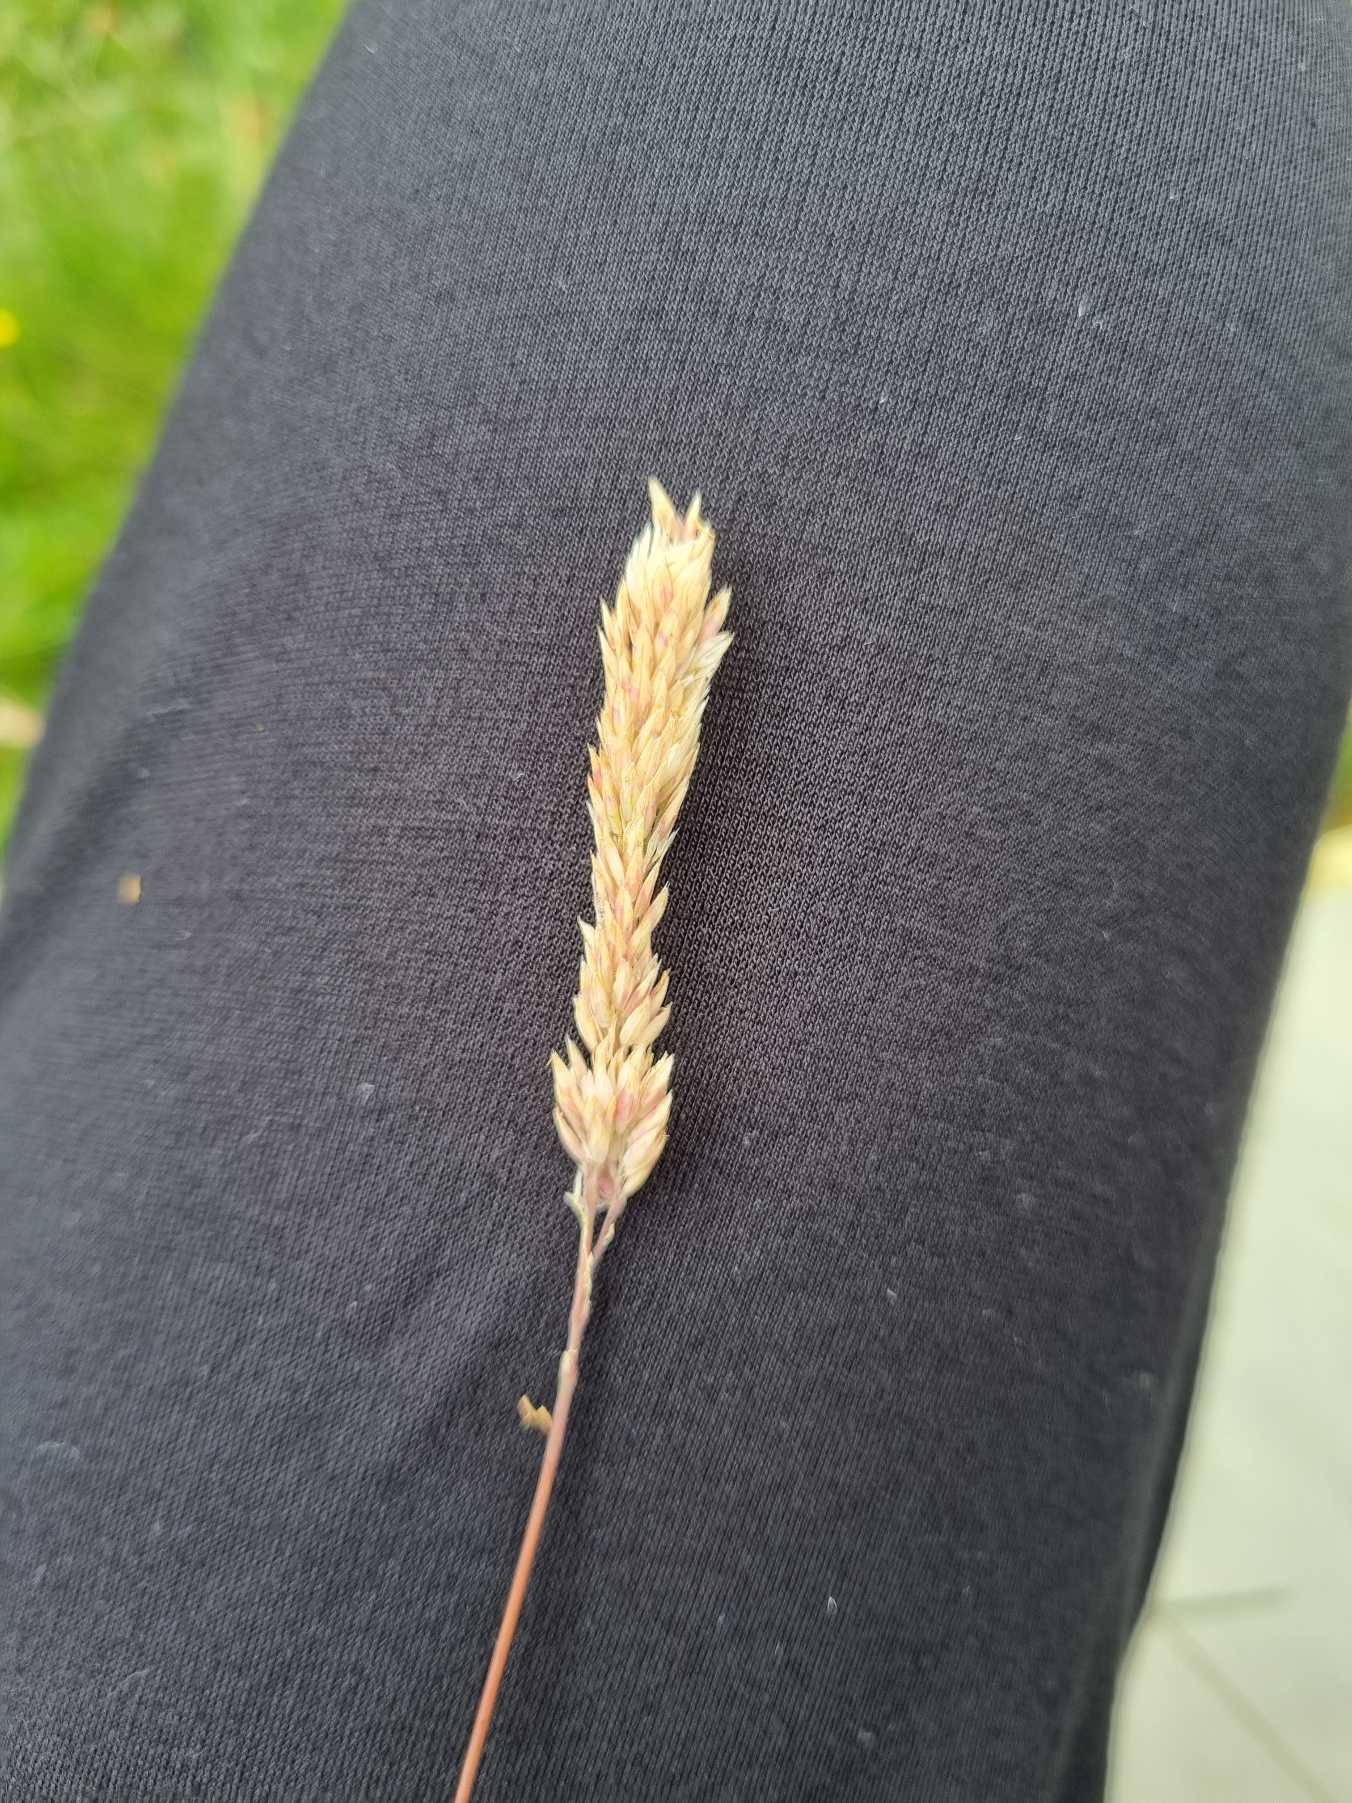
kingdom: Plantae
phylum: Tracheophyta
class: Liliopsida
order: Poales
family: Poaceae
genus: Holcus
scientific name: Holcus lanatus
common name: Fløjlsgræs
